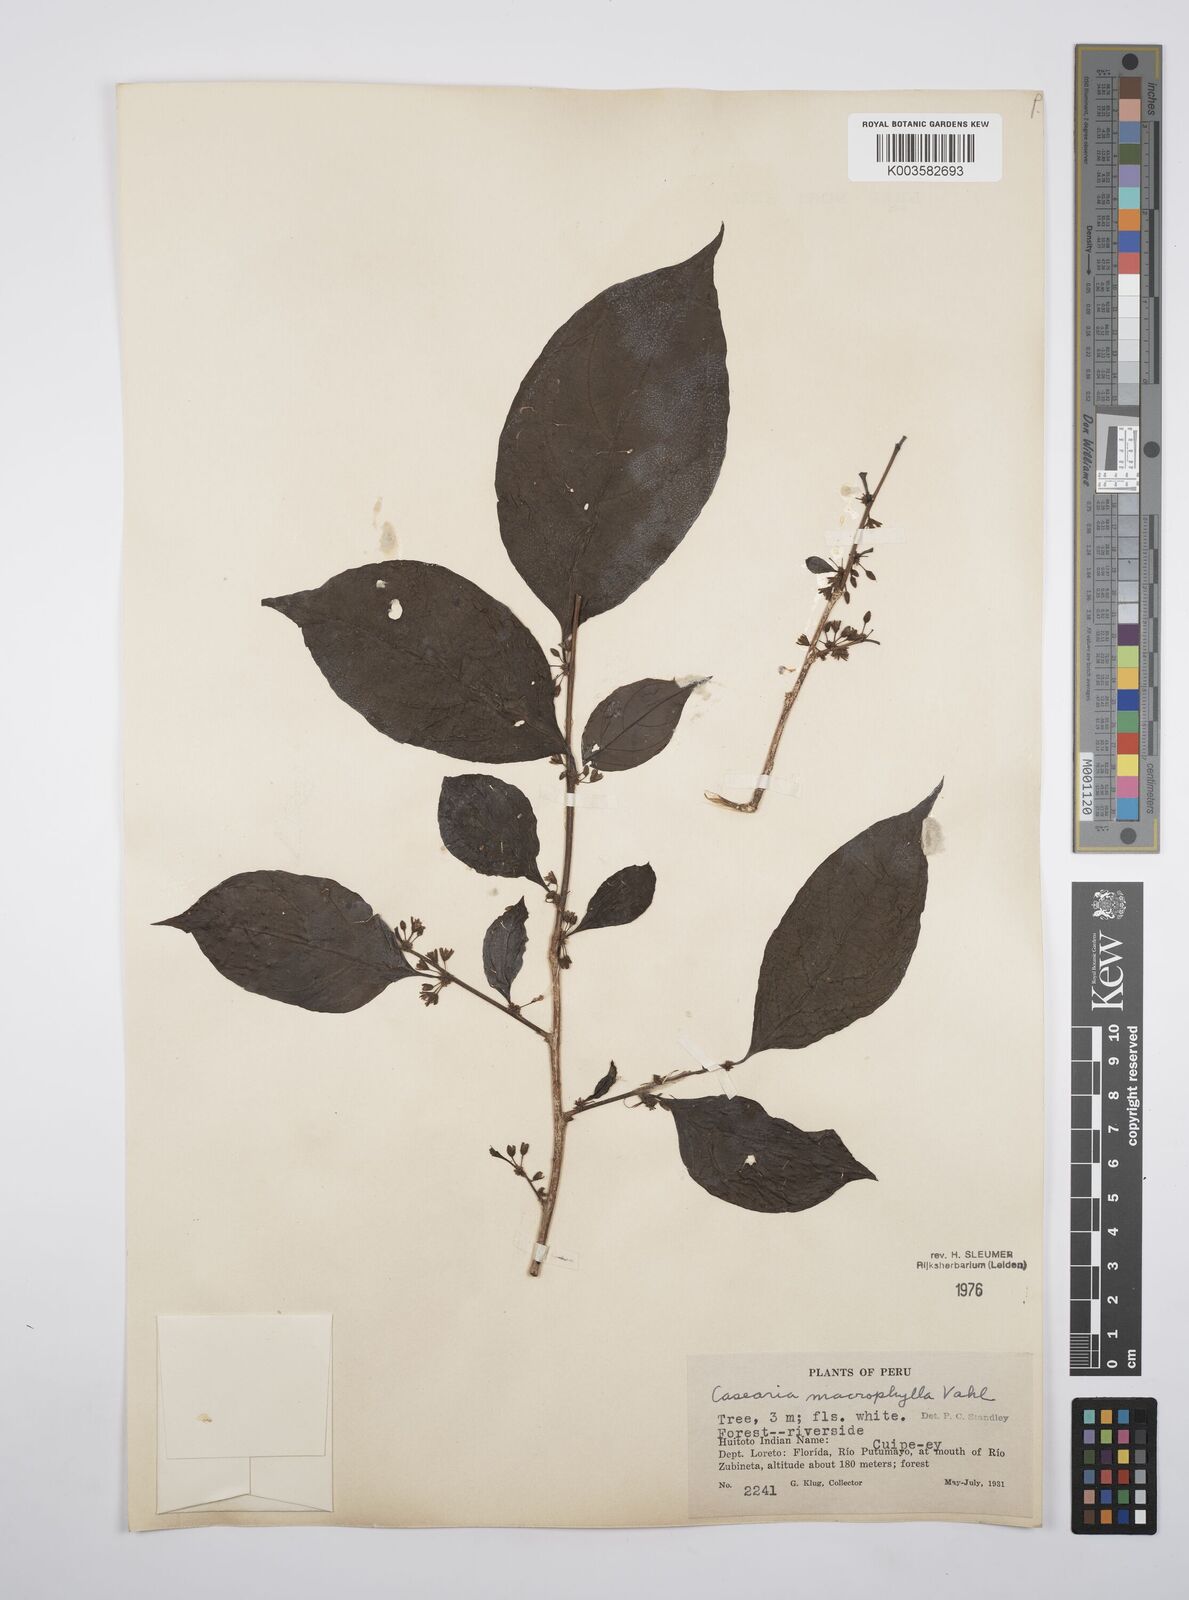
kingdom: Plantae
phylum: Tracheophyta
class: Magnoliopsida
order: Malpighiales
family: Salicaceae
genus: Casearia
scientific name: Casearia pitumba
